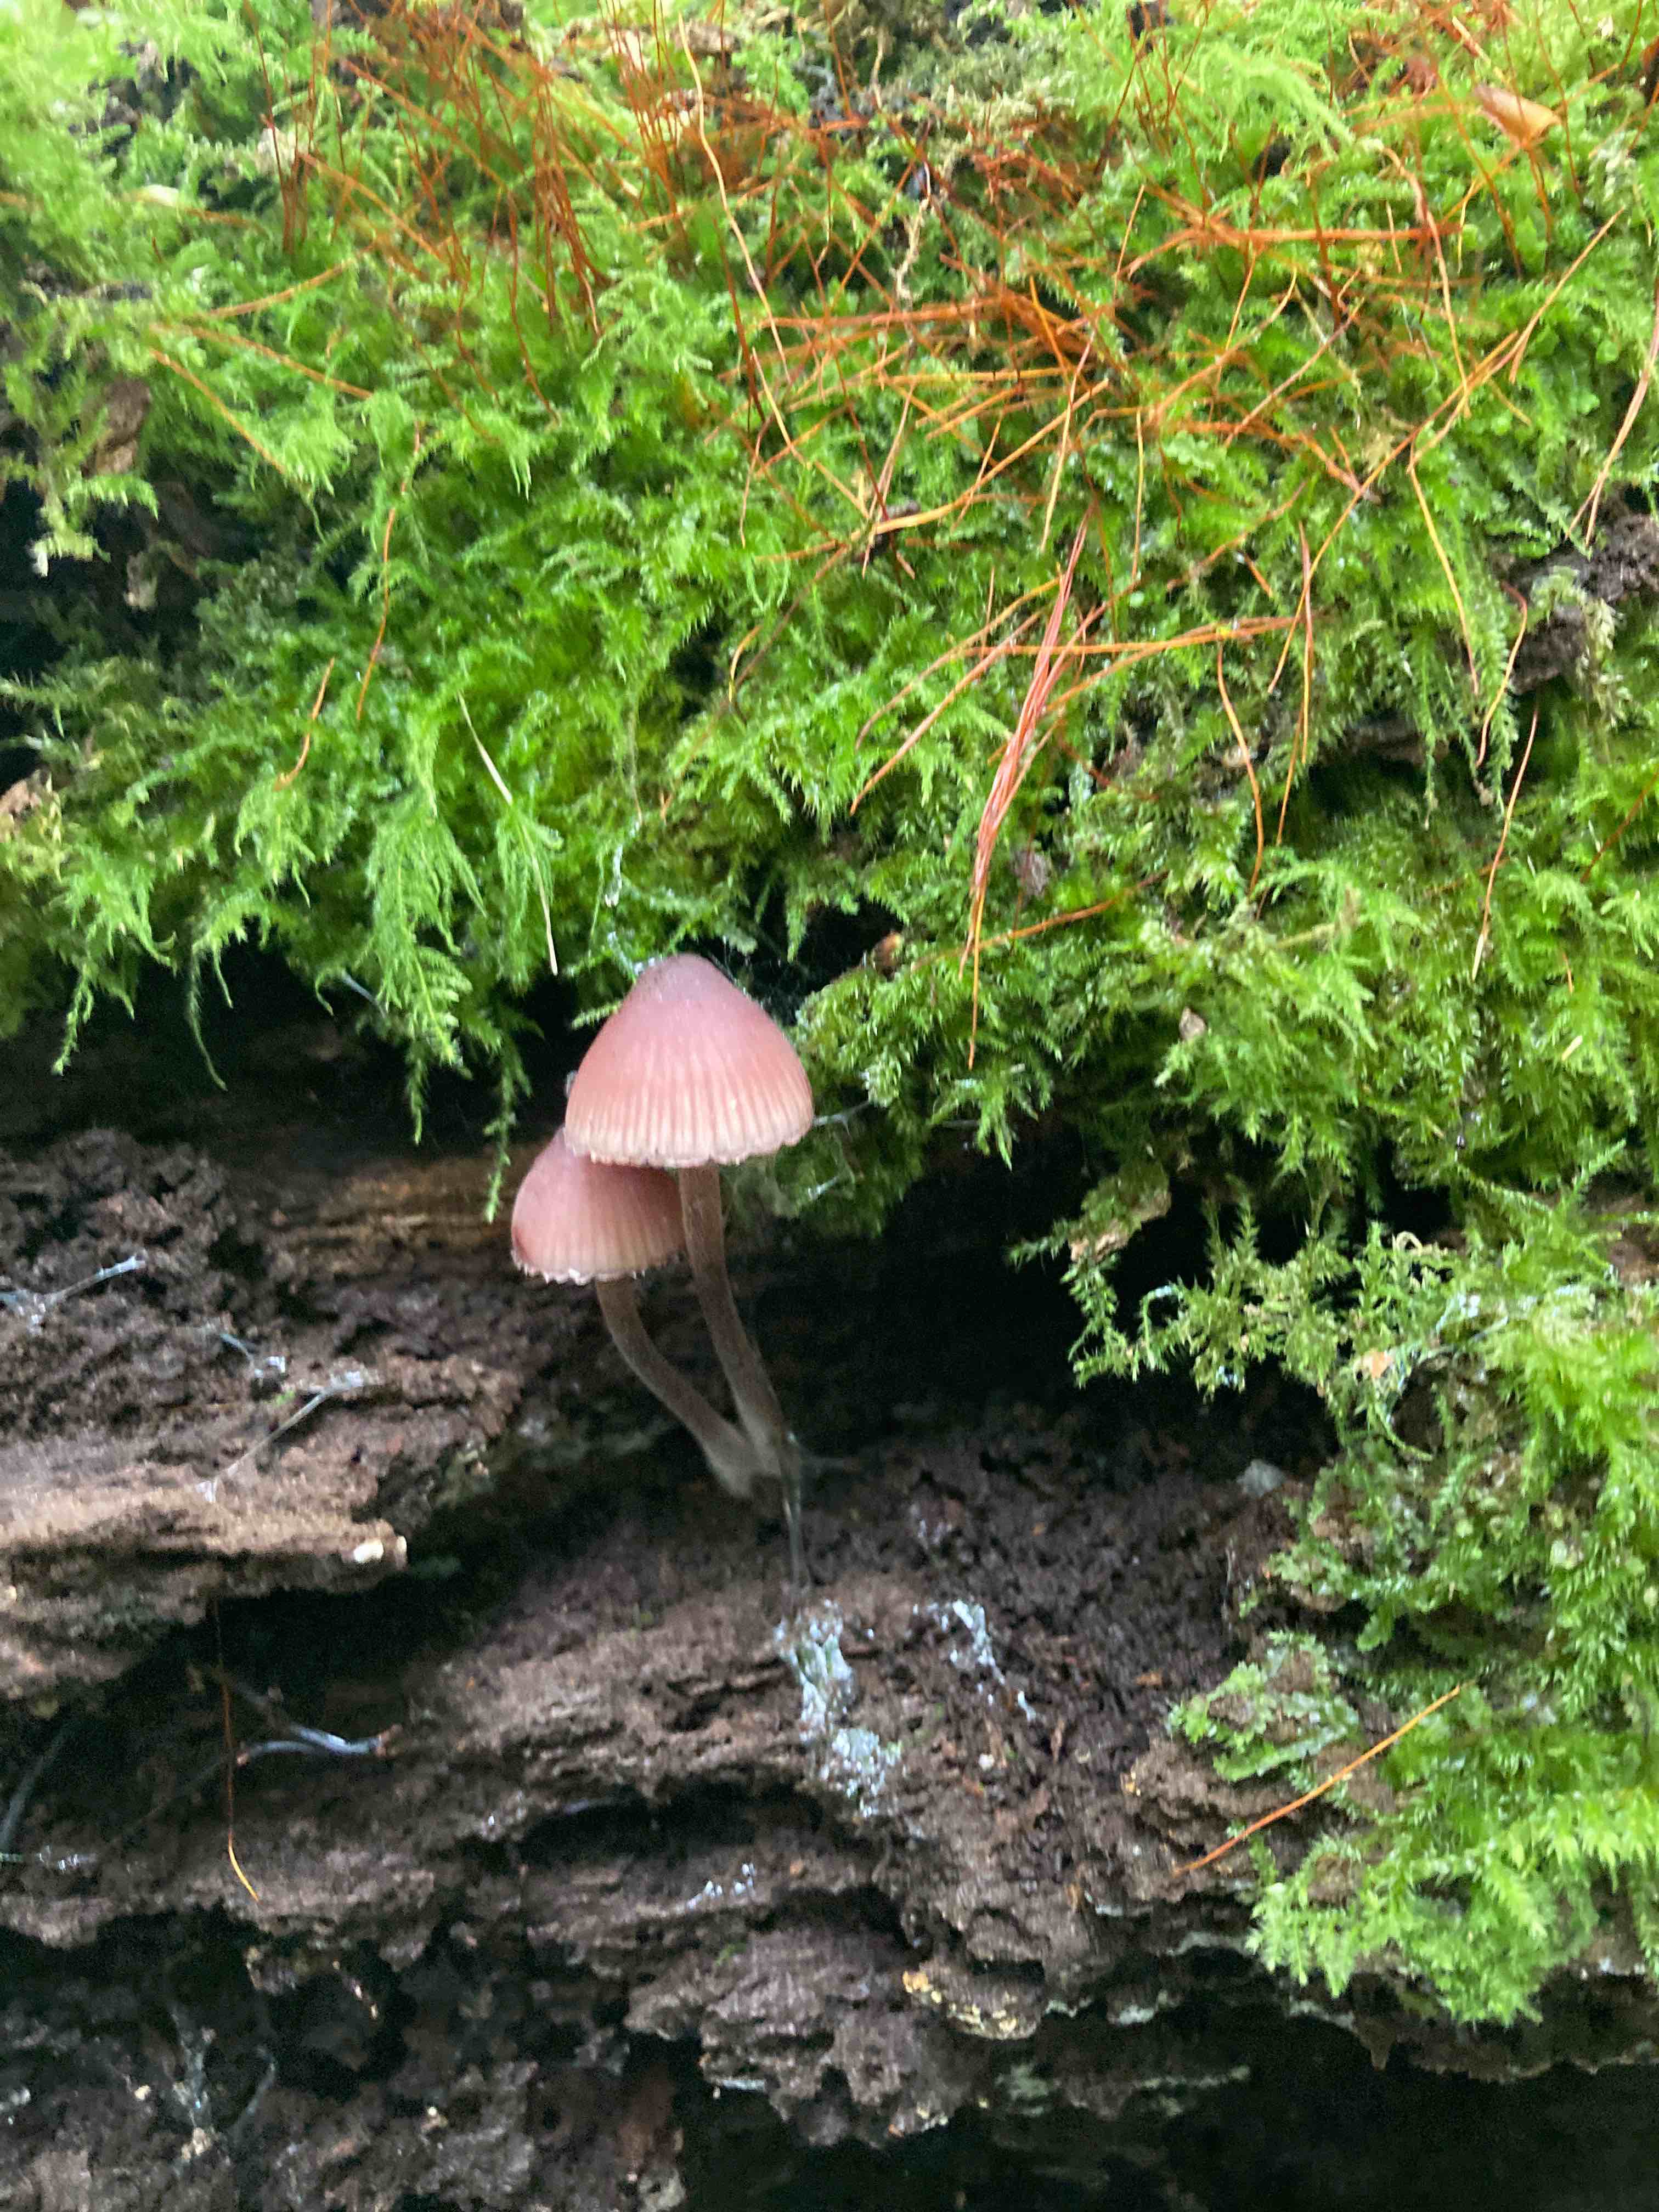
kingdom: Fungi
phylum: Basidiomycota
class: Agaricomycetes
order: Agaricales
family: Mycenaceae
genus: Mycena
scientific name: Mycena haematopus
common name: blødende huesvamp
